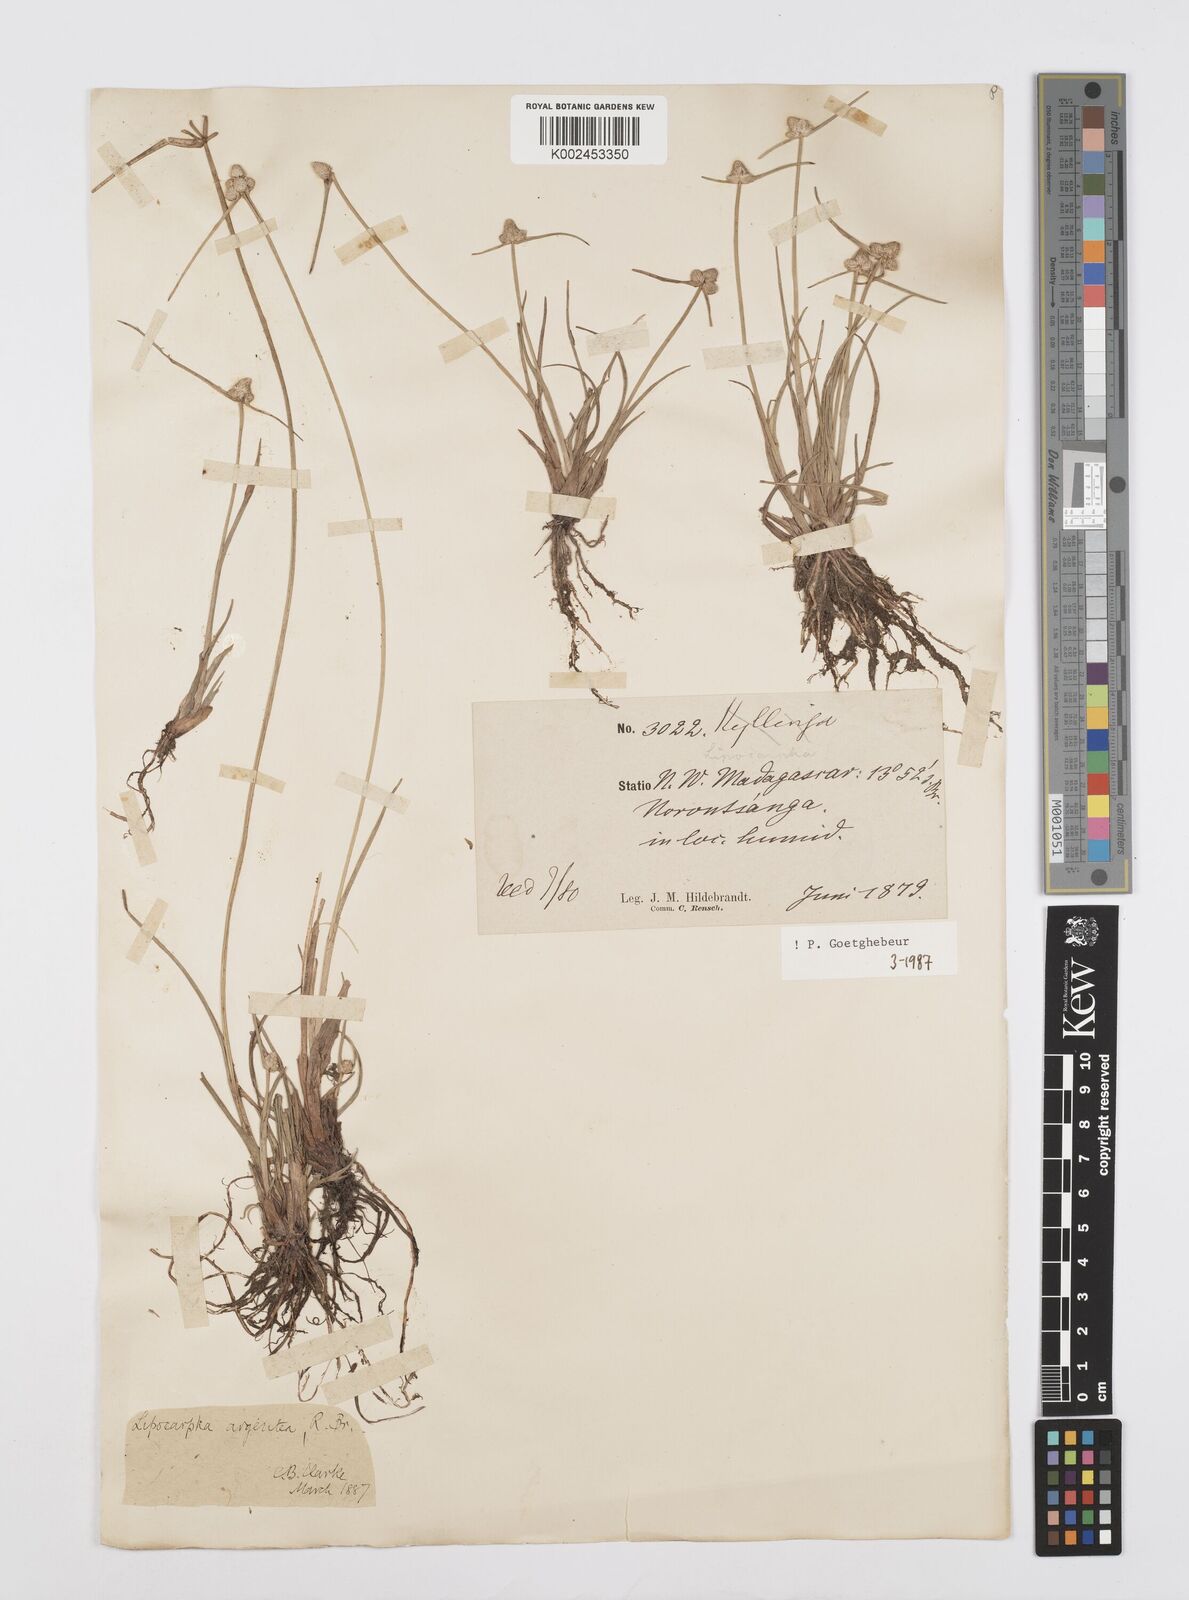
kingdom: Plantae
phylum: Tracheophyta
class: Liliopsida
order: Poales
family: Cyperaceae
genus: Cyperus
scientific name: Cyperus
